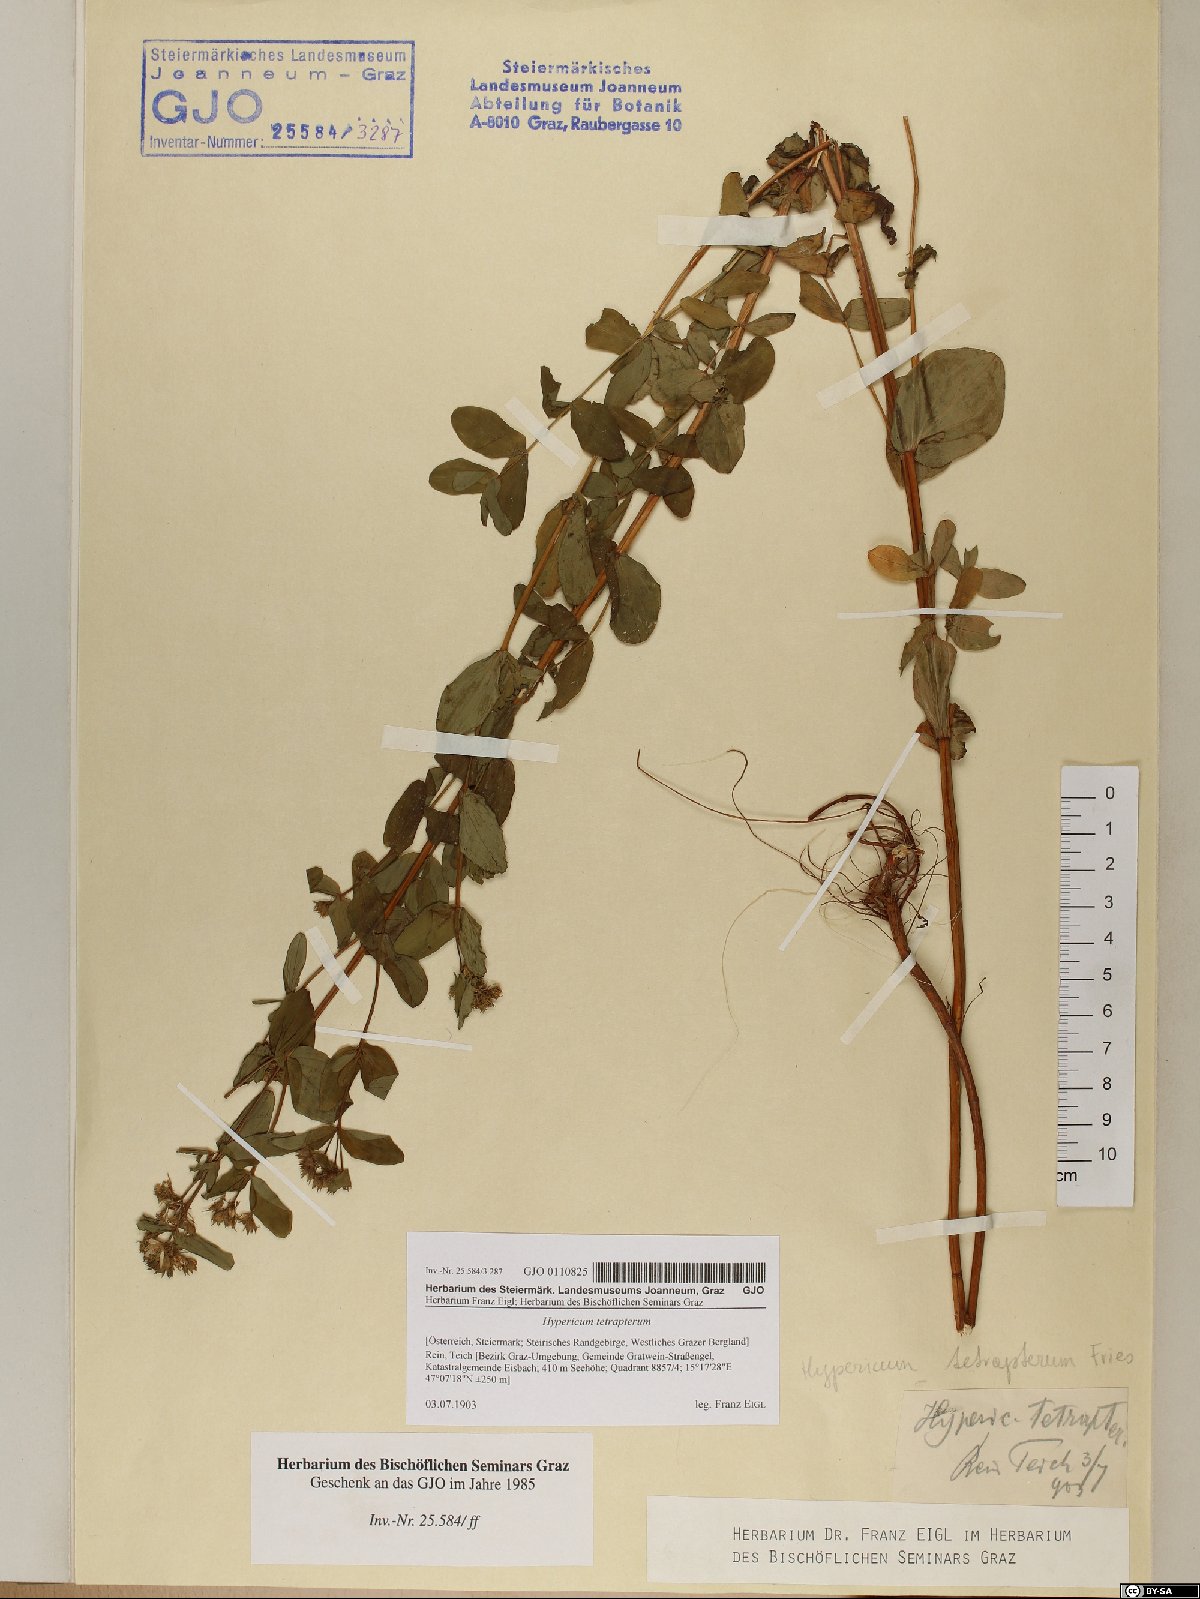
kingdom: Plantae
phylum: Tracheophyta
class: Magnoliopsida
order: Malpighiales
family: Hypericaceae
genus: Hypericum
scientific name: Hypericum tetrapterum
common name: Square-stalked st. john's-wort
